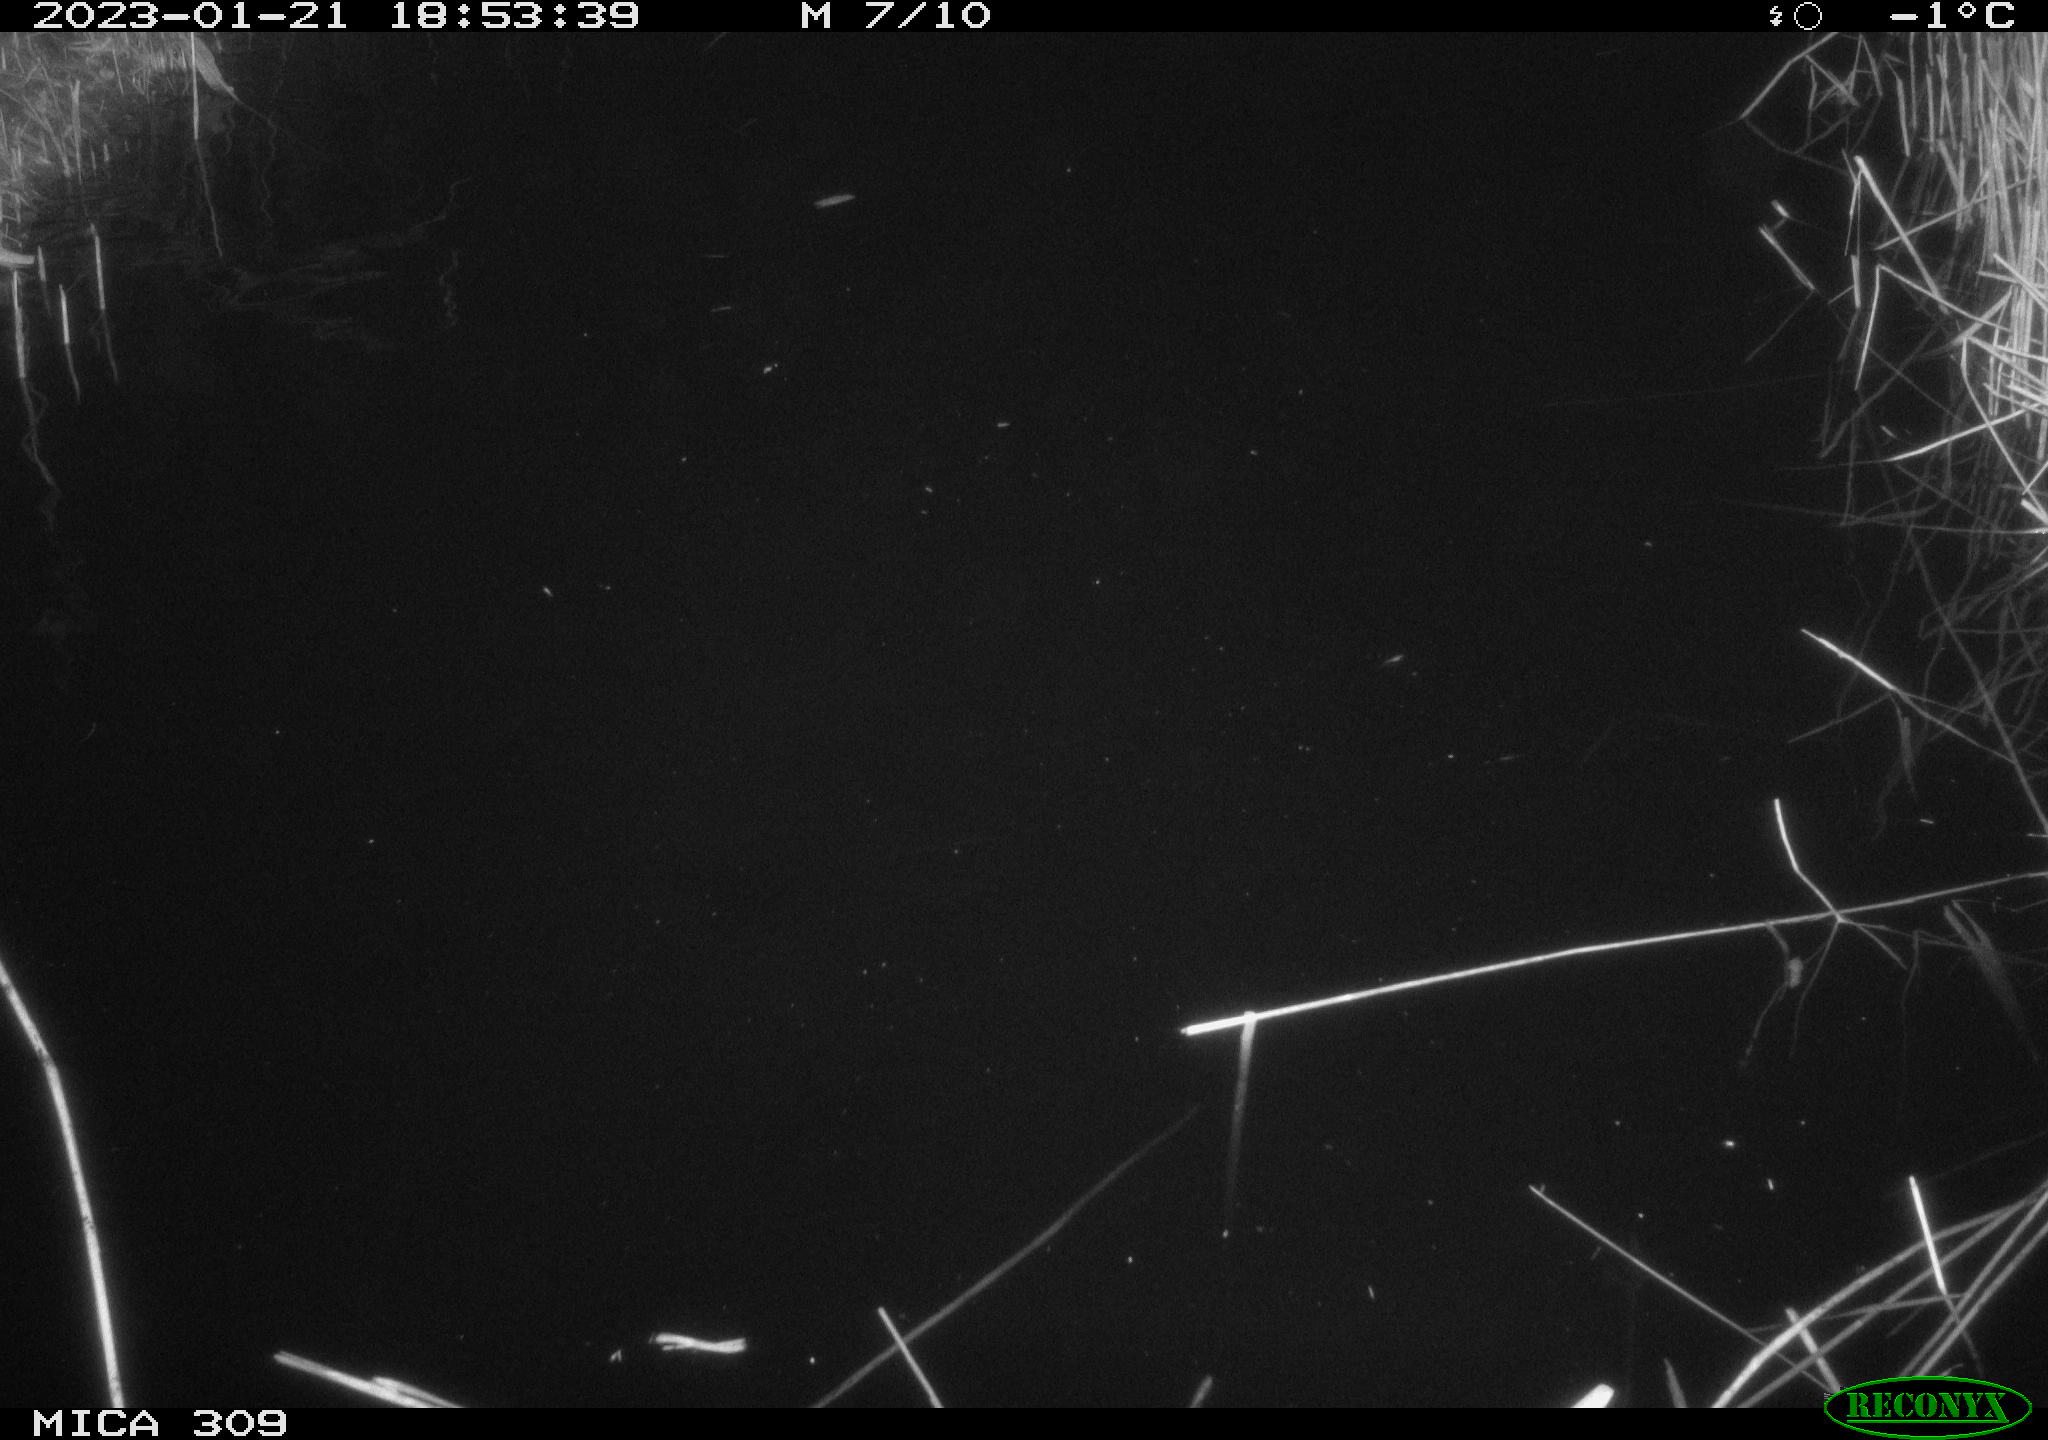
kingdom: Animalia
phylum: Chordata
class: Mammalia
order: Rodentia
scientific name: Rodentia
